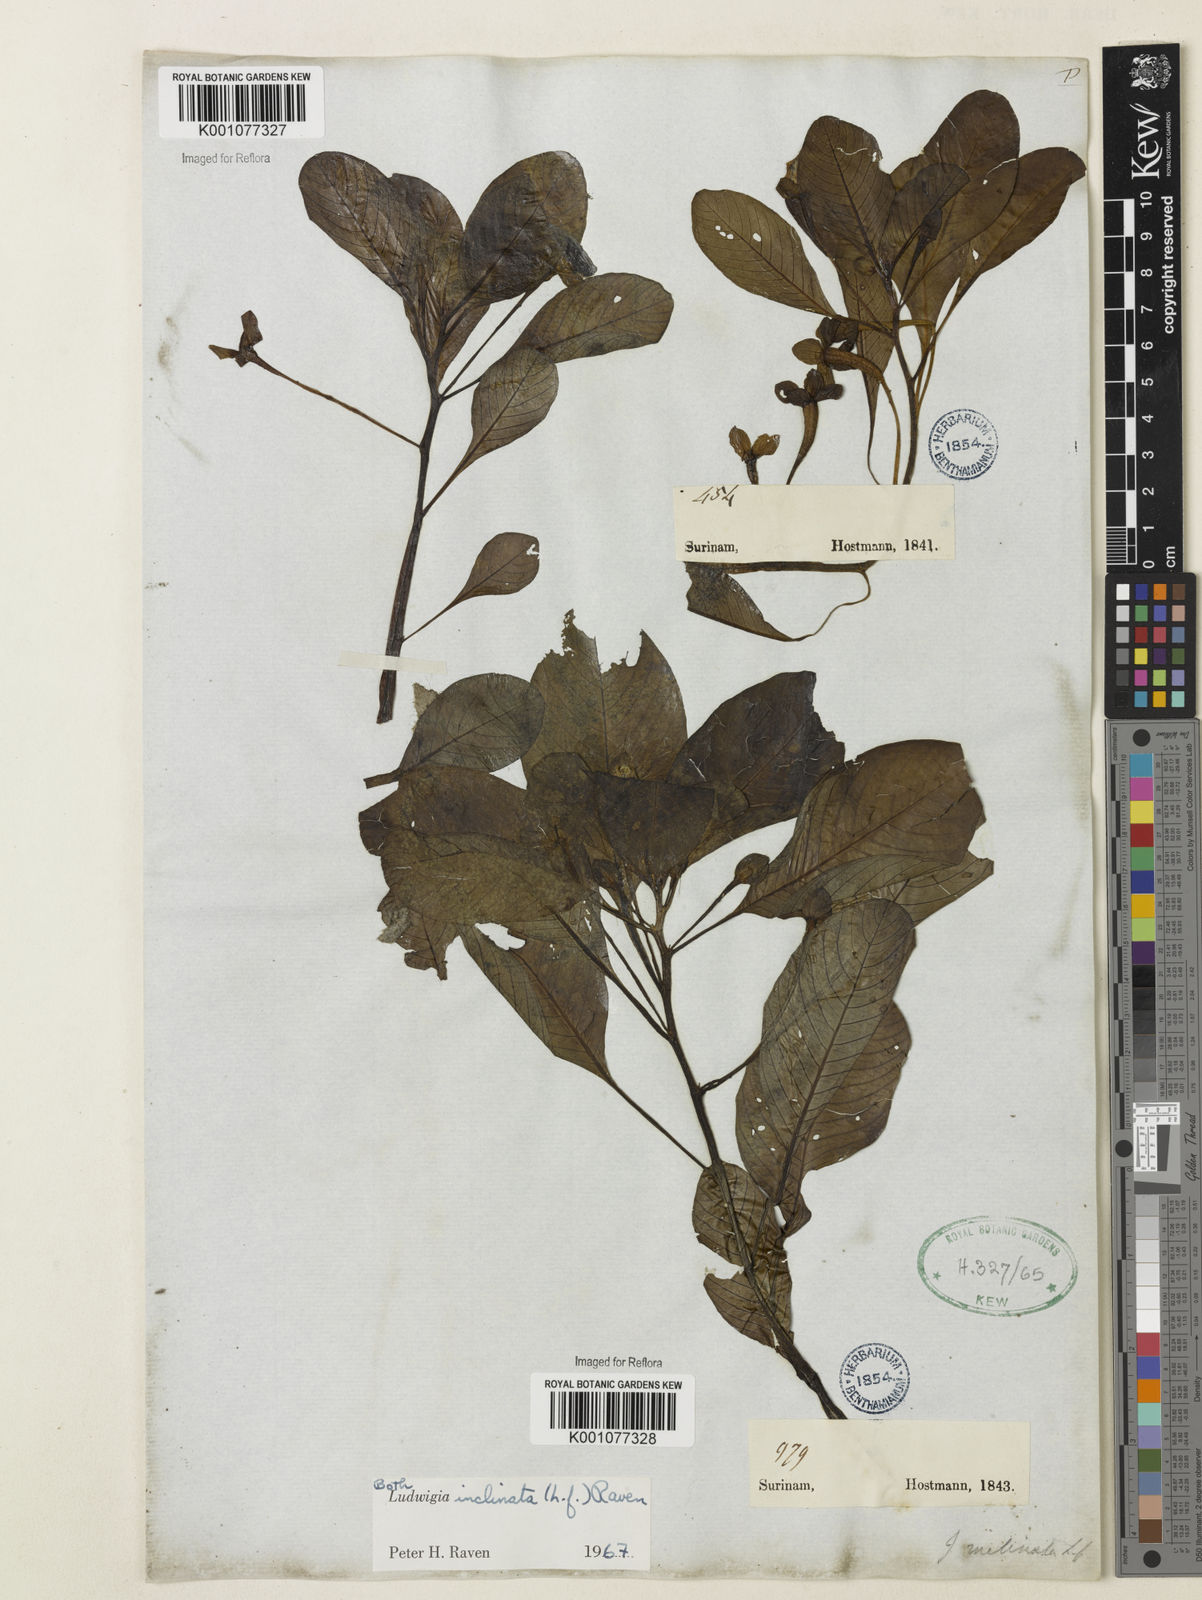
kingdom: Plantae
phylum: Tracheophyta
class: Magnoliopsida
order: Myrtales
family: Onagraceae
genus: Ludwigia
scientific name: Ludwigia potamogeton
